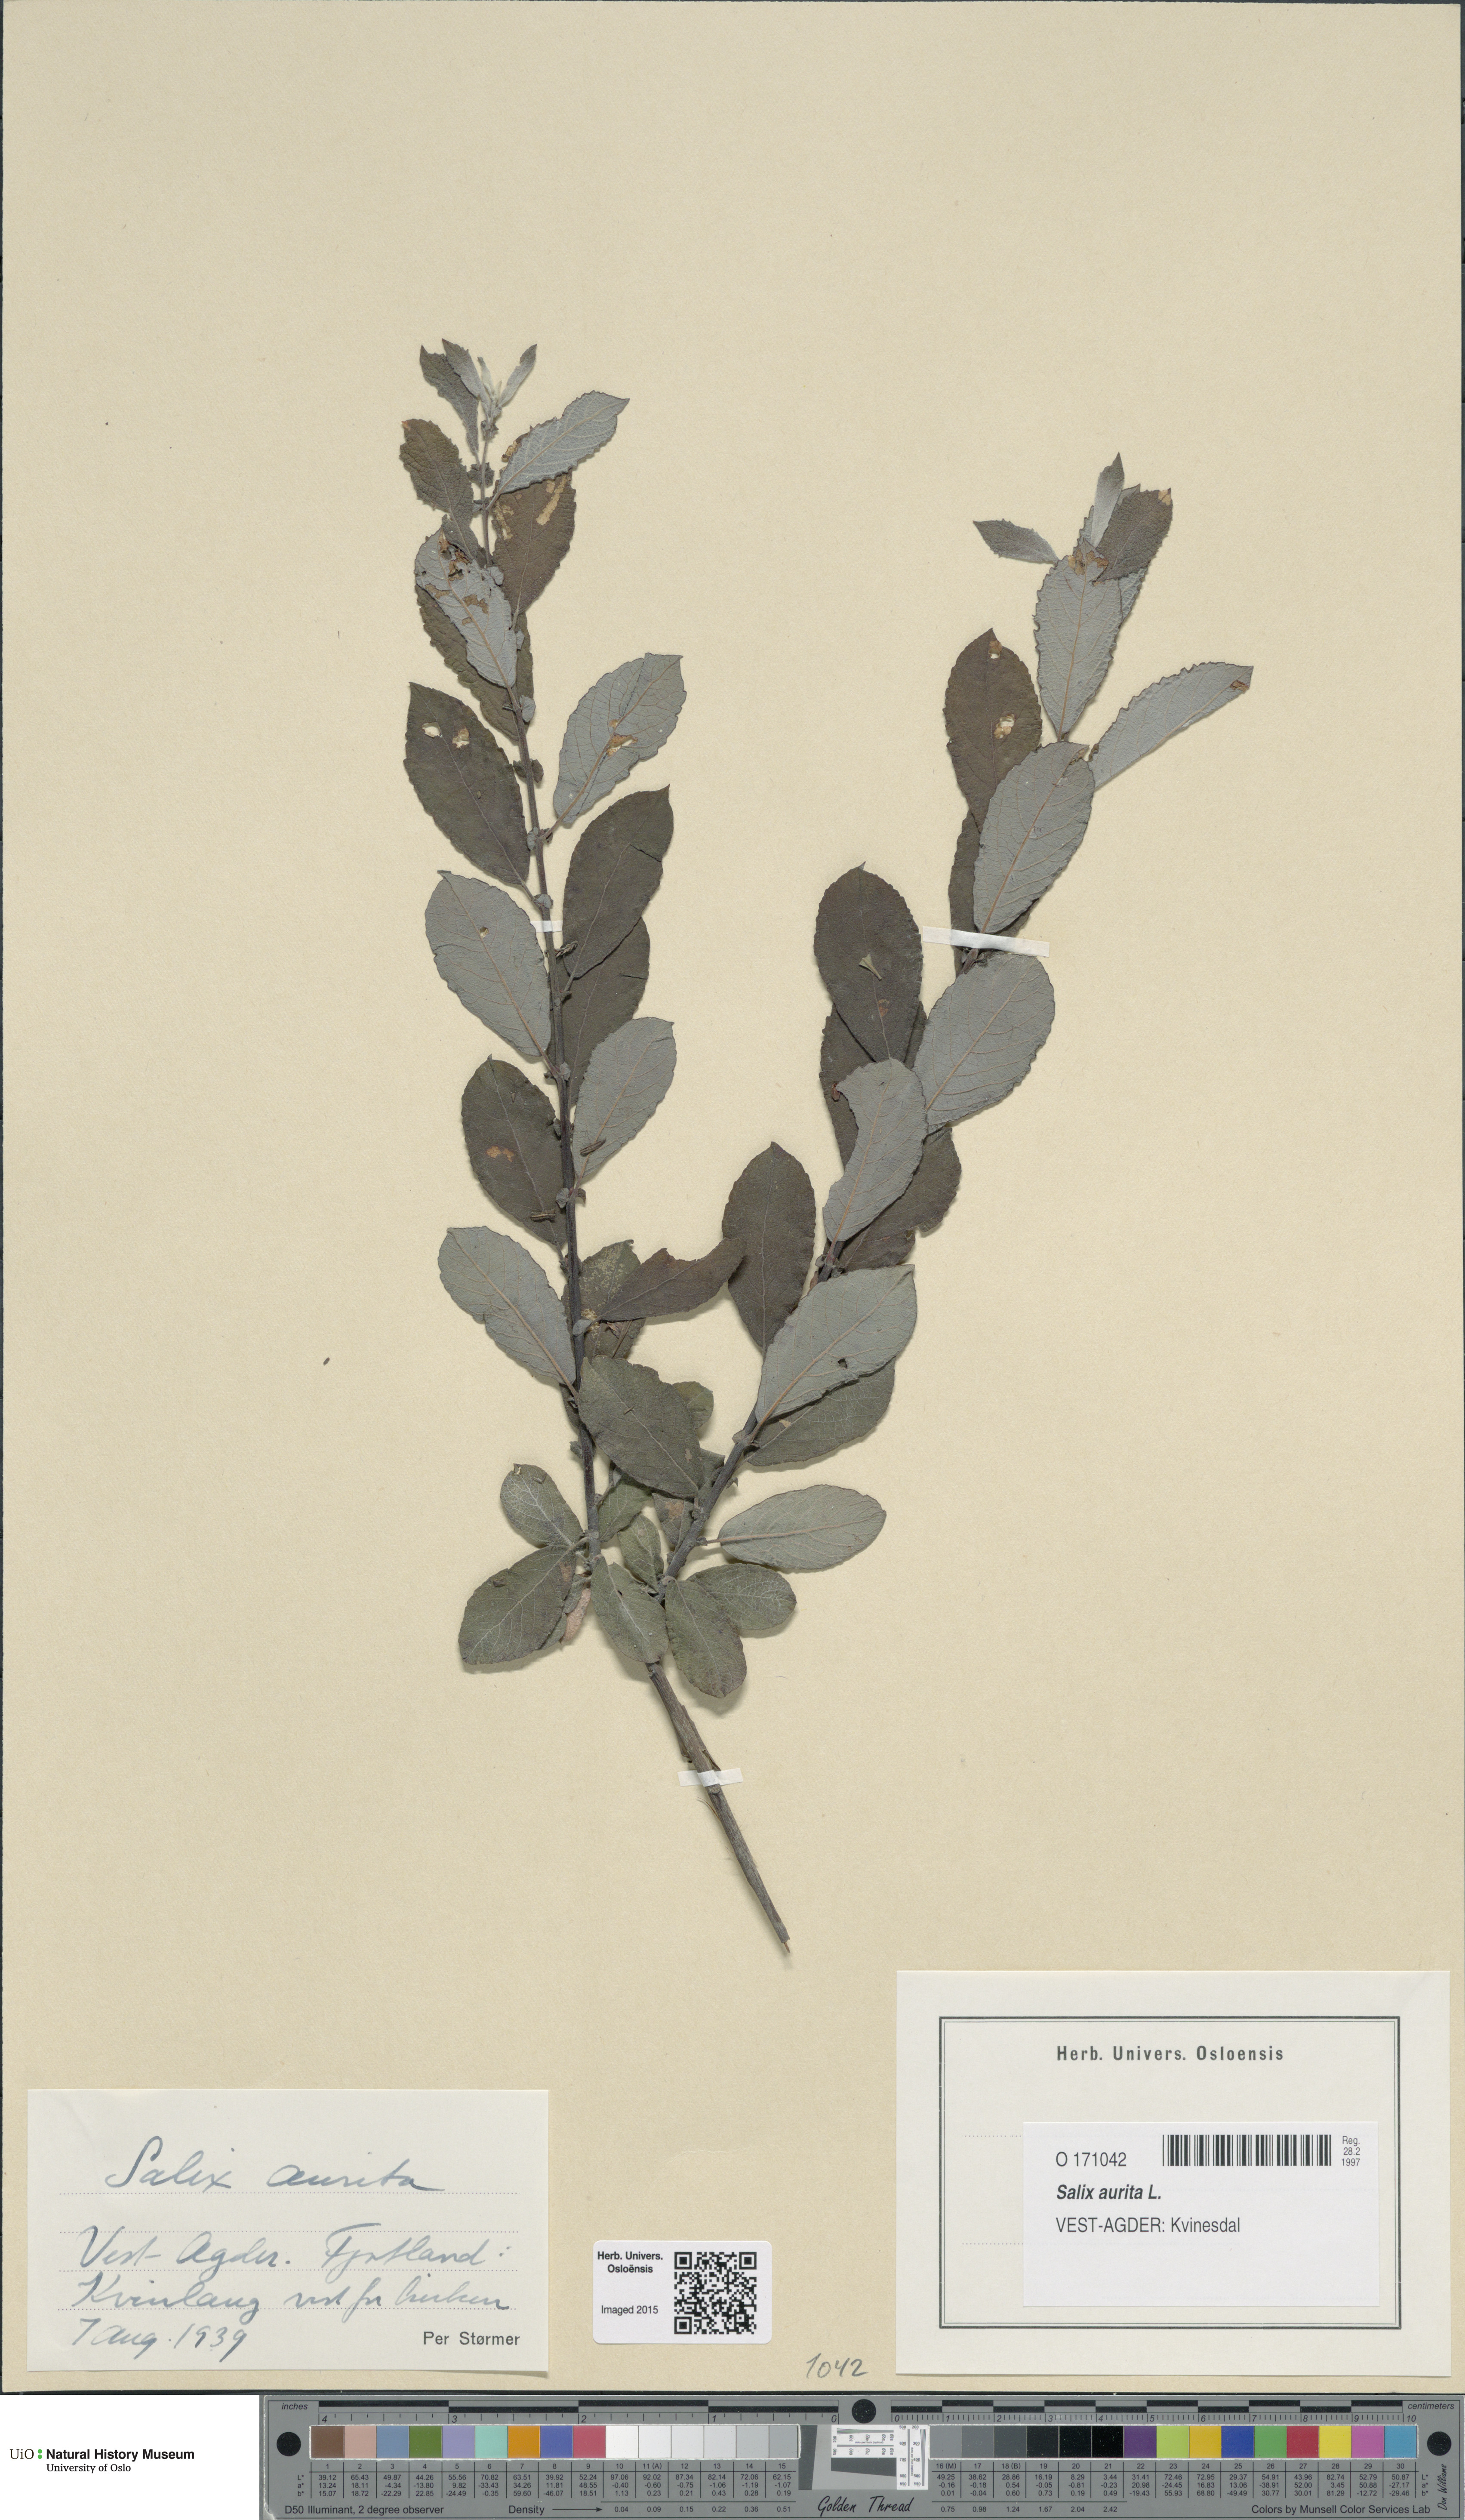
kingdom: Plantae
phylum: Tracheophyta
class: Magnoliopsida
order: Malpighiales
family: Salicaceae
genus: Salix
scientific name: Salix aurita
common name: Eared willow
